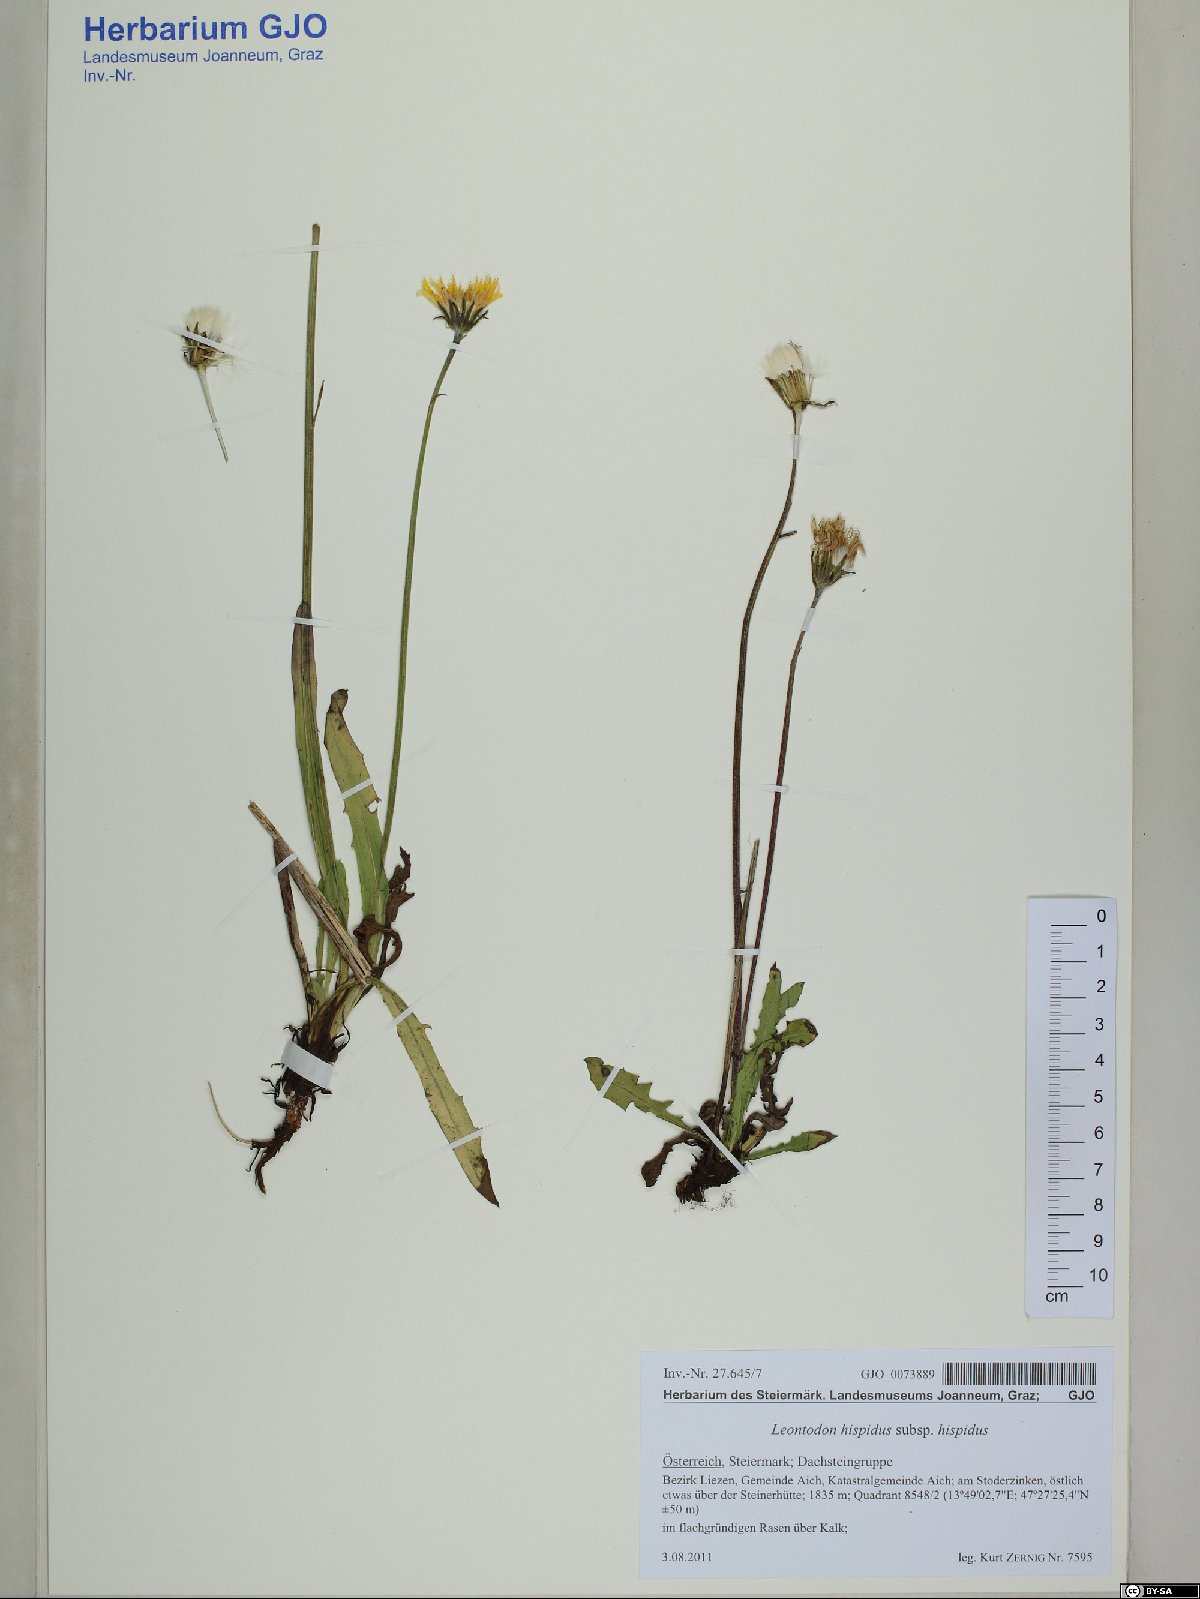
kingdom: Plantae
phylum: Tracheophyta
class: Magnoliopsida
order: Asterales
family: Asteraceae
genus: Leontodon
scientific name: Leontodon hispidus
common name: Rough hawkbit
